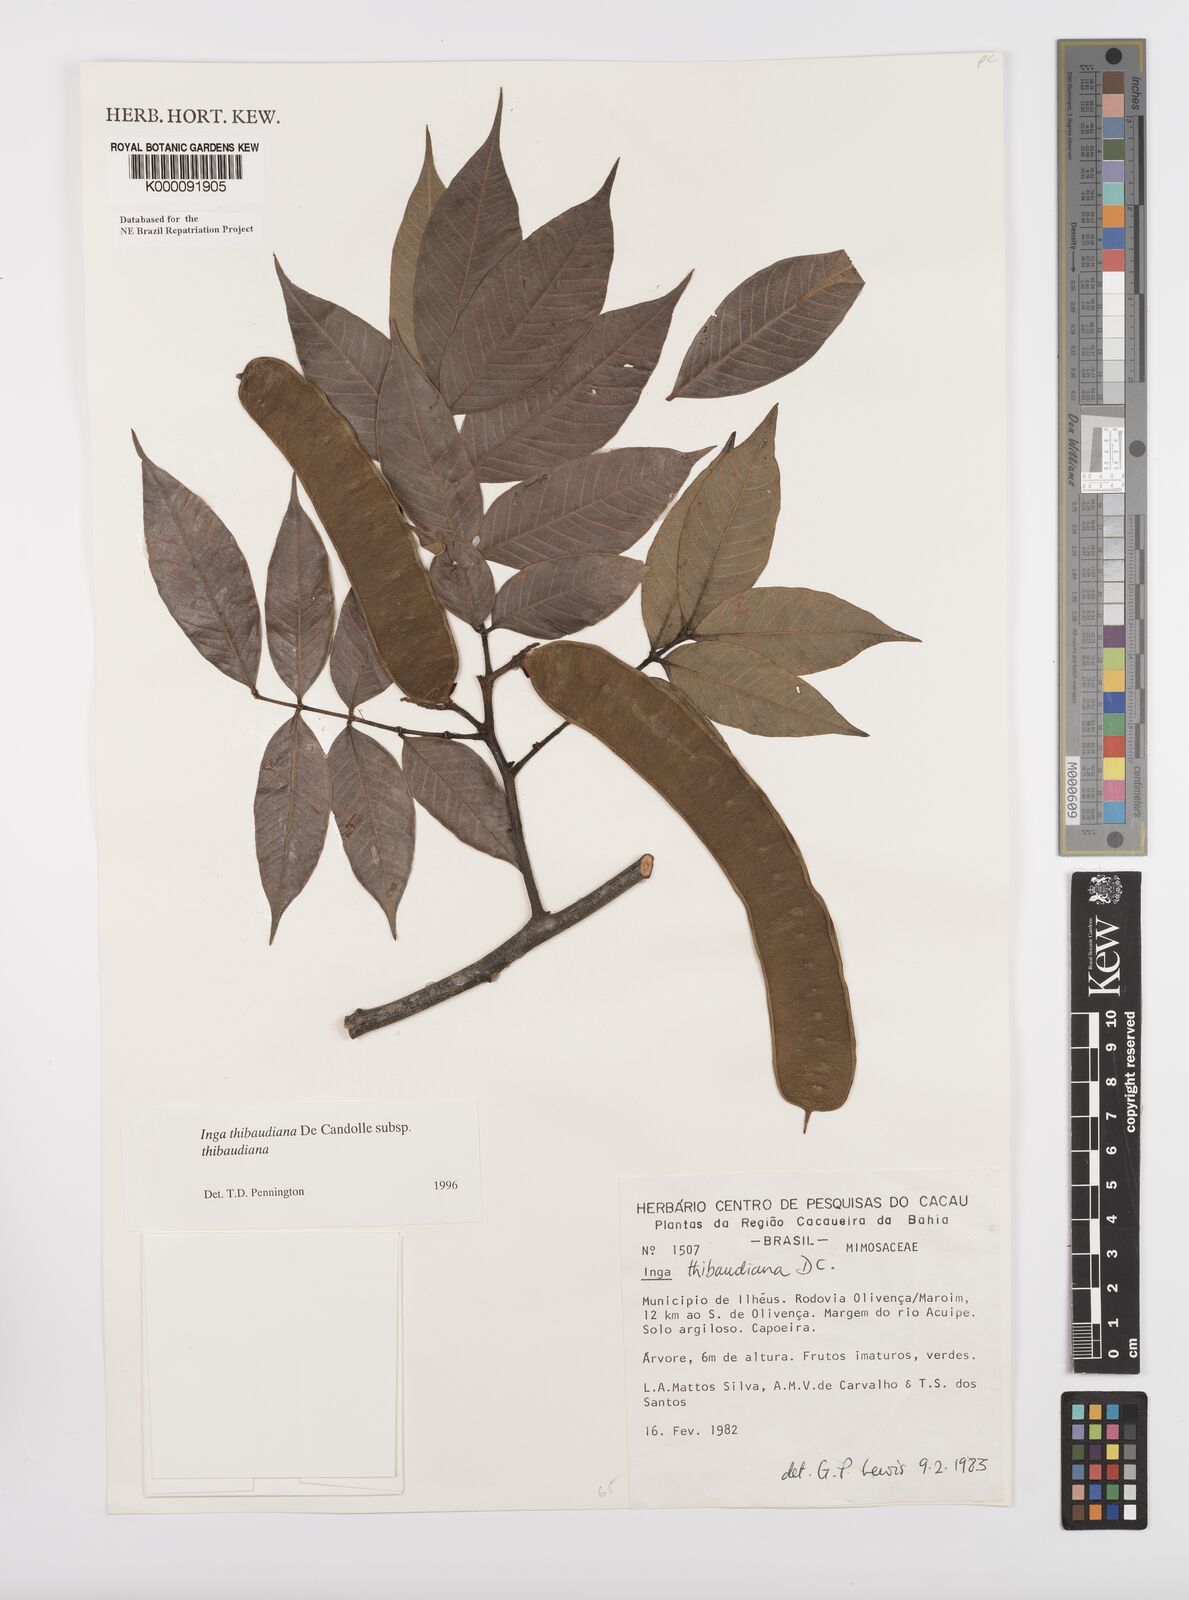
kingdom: Plantae
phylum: Tracheophyta
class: Magnoliopsida
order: Fabales
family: Fabaceae
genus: Inga
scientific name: Inga thibaudiana
